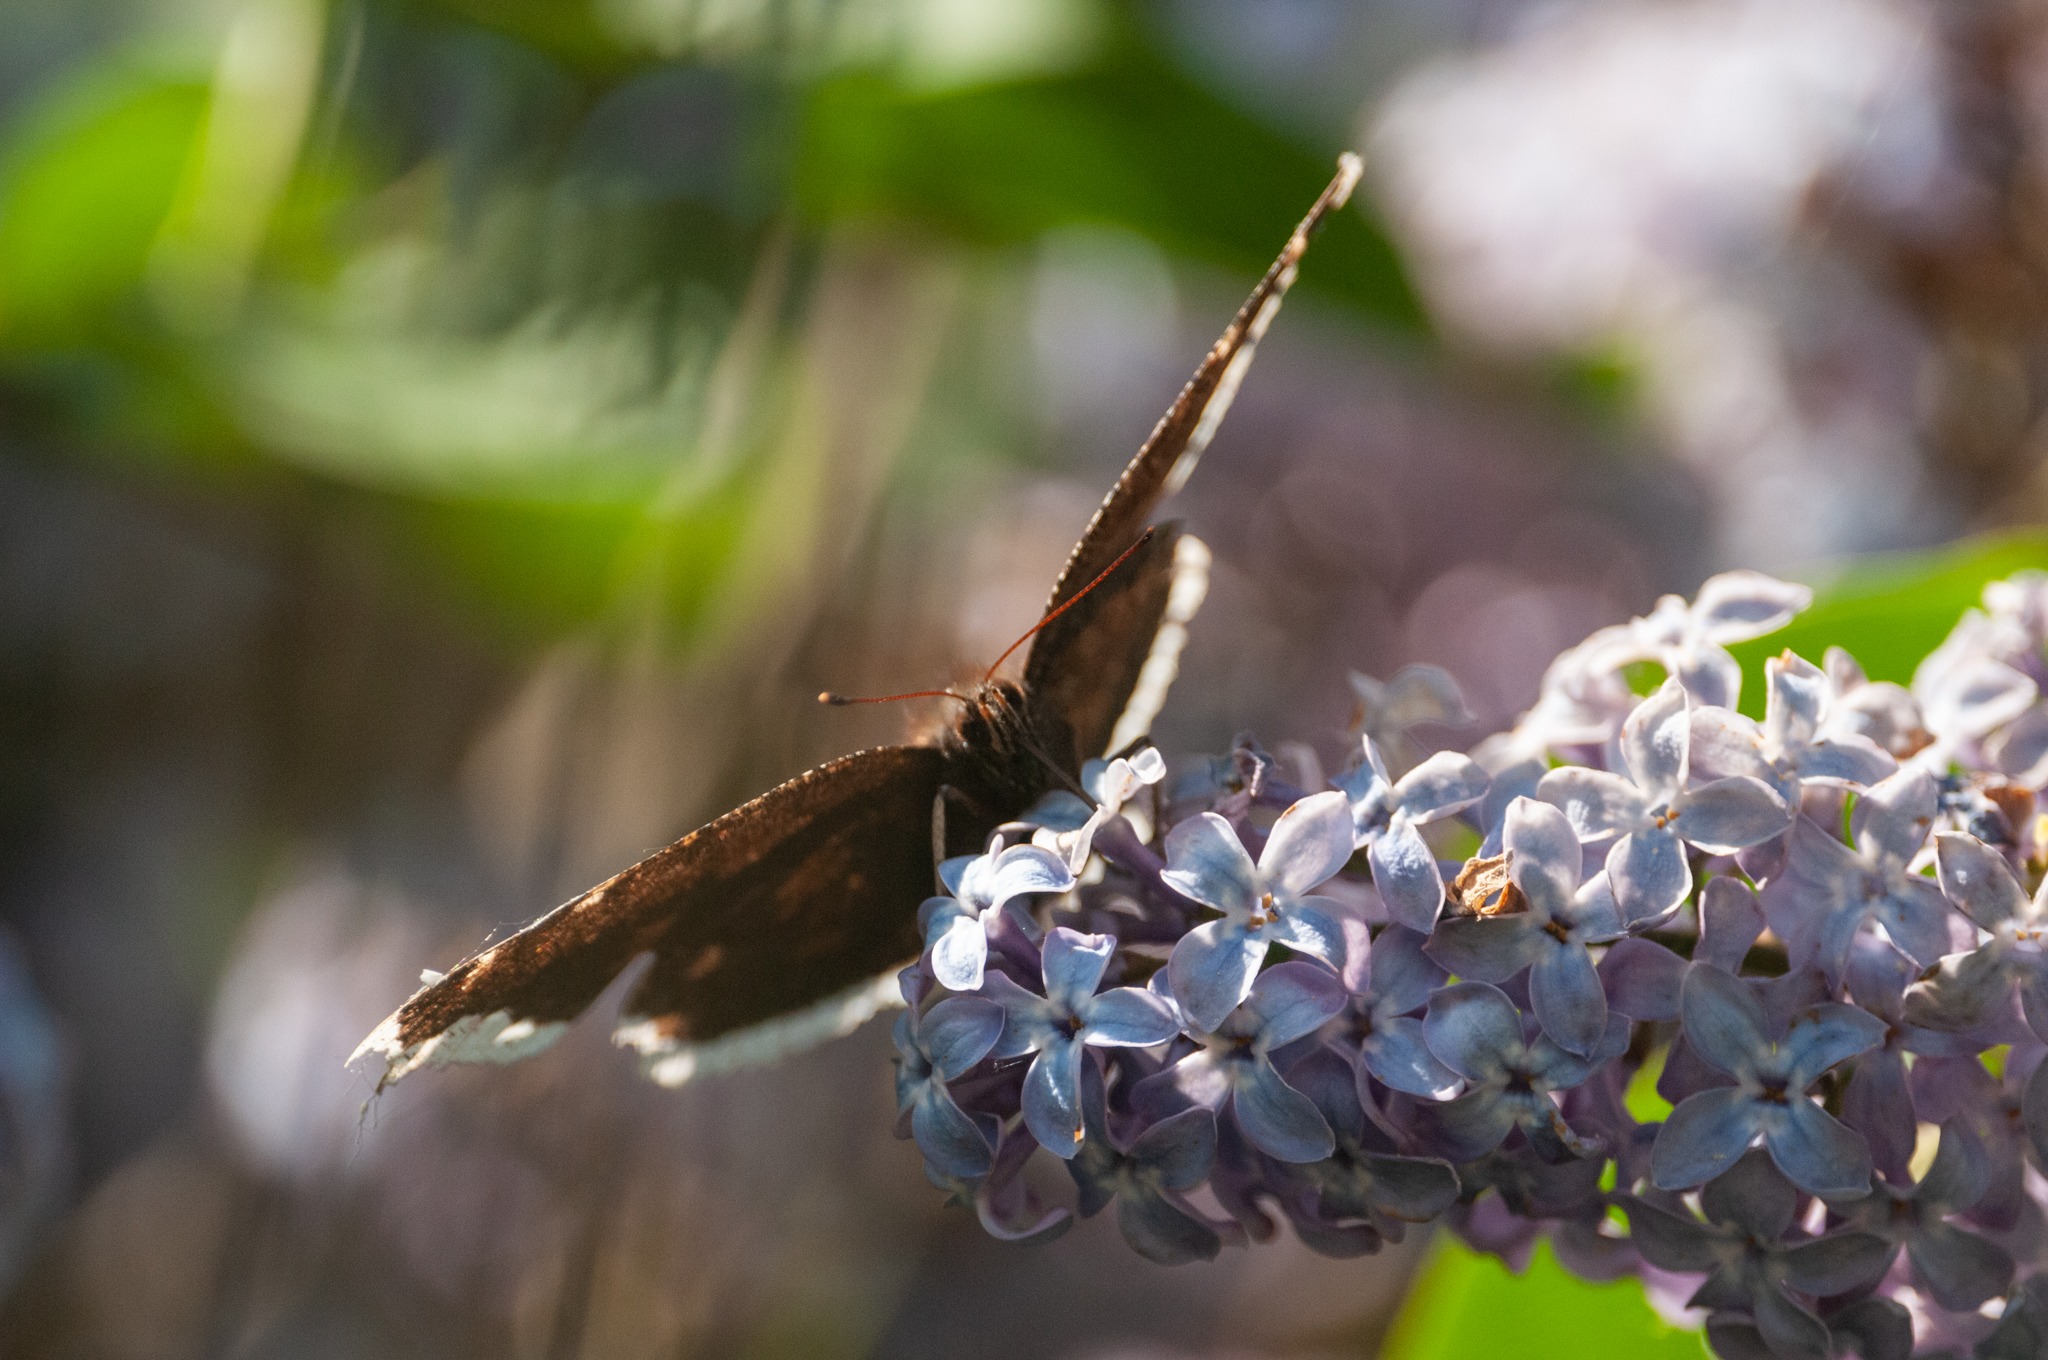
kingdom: Animalia
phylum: Arthropoda
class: Insecta
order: Lepidoptera
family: Nymphalidae
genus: Nymphalis
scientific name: Nymphalis antiopa
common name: Sørgekåbe
